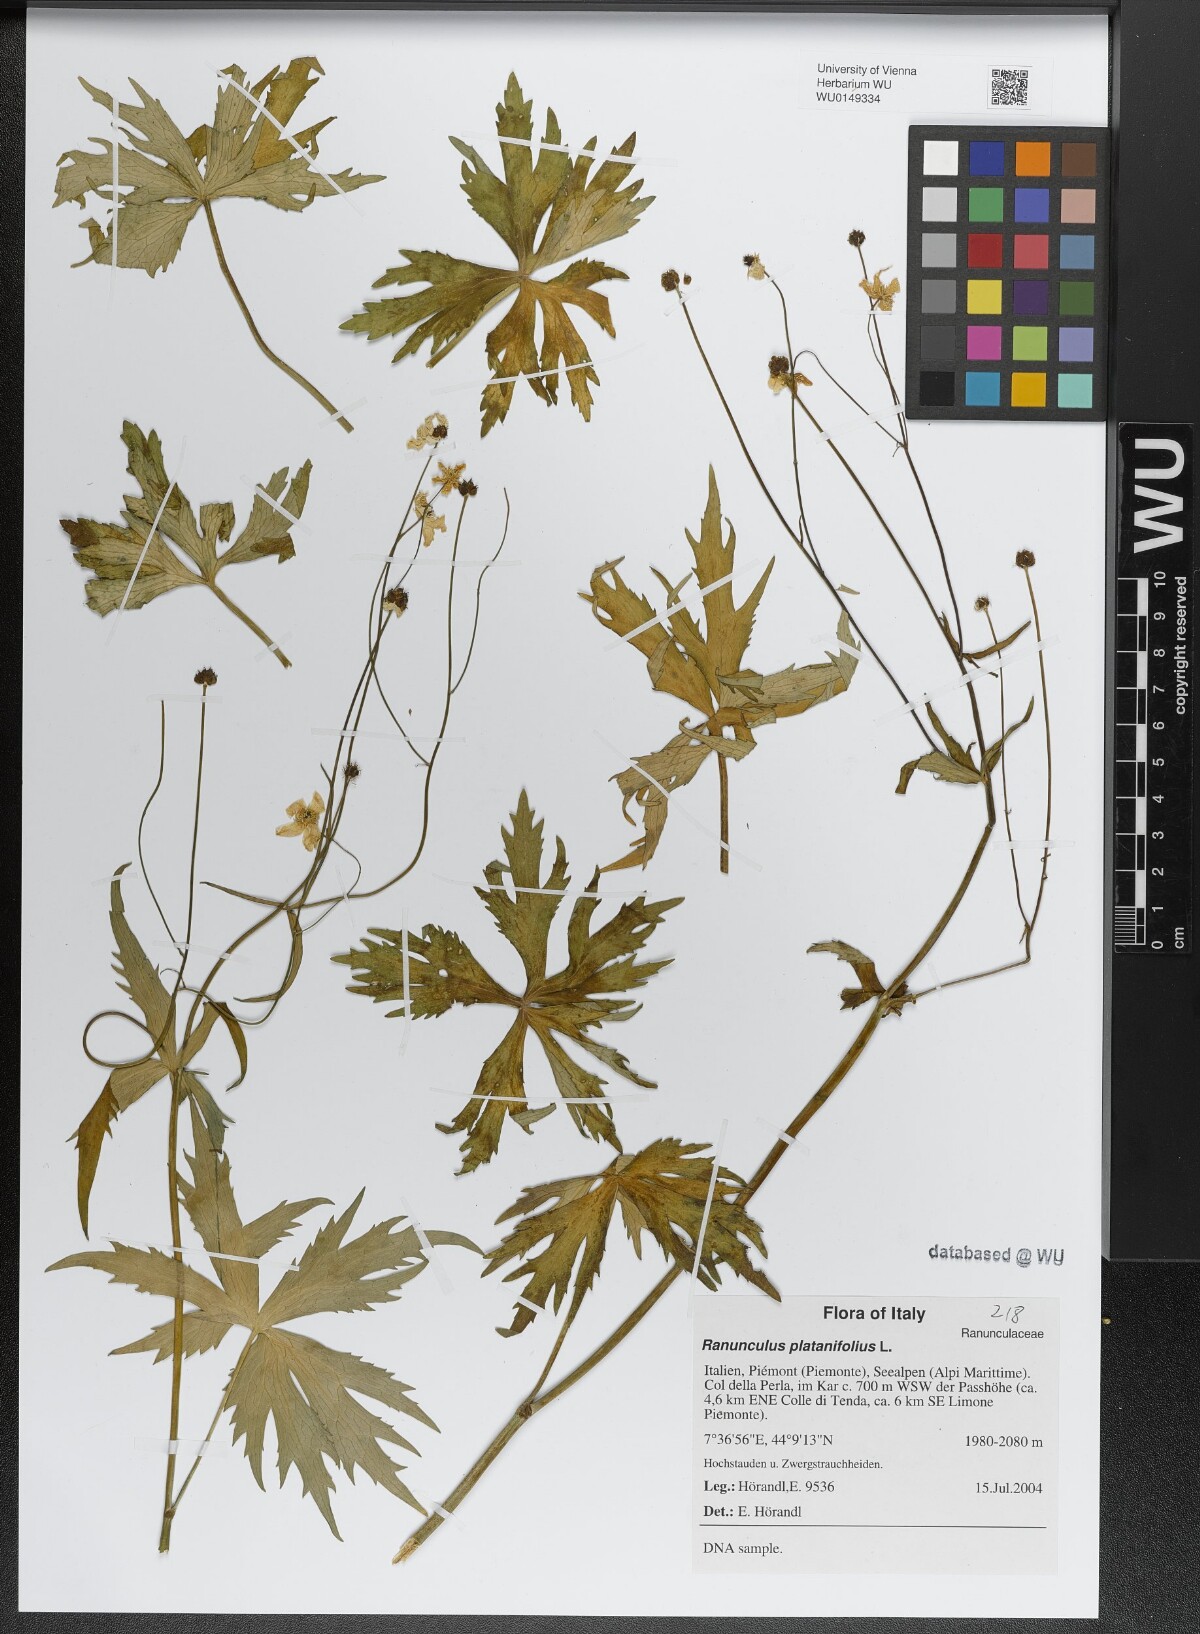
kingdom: Plantae
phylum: Tracheophyta
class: Magnoliopsida
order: Ranunculales
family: Ranunculaceae
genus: Ranunculus
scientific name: Ranunculus platanifolius
